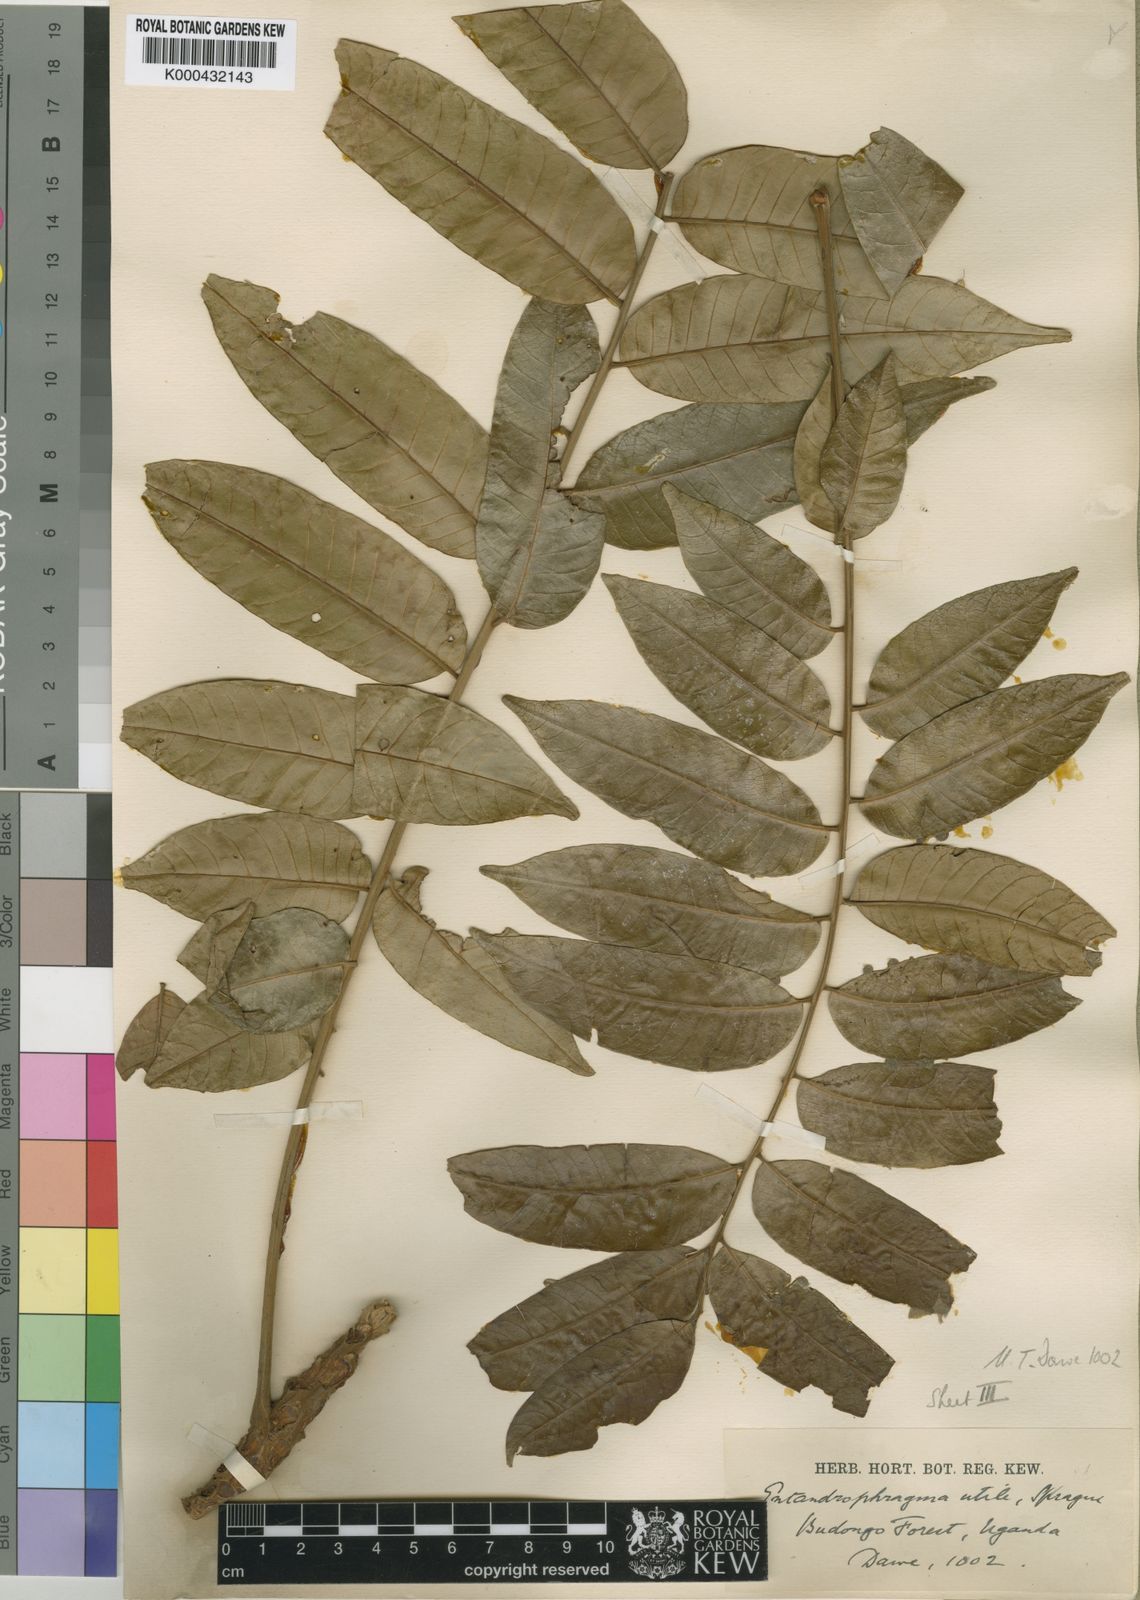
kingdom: Plantae
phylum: Tracheophyta
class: Magnoliopsida
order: Sapindales
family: Meliaceae
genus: Entandrophragma
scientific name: Entandrophragma utile
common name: Utile
